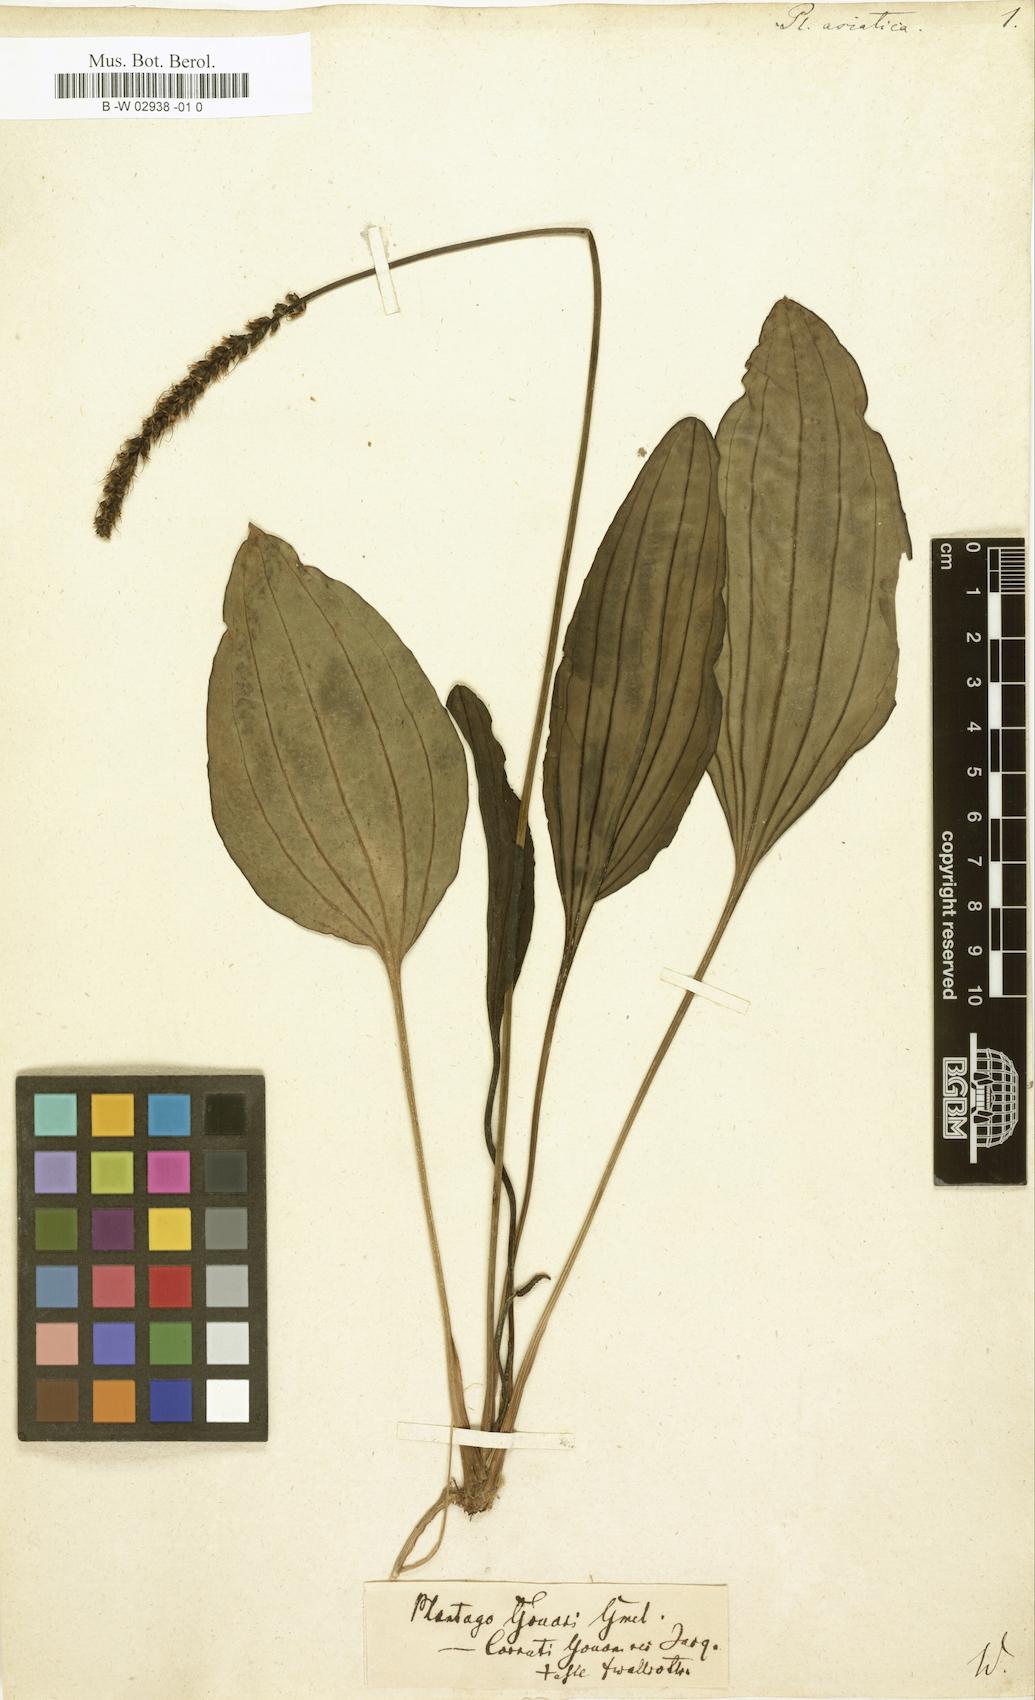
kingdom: Plantae
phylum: Tracheophyta
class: Magnoliopsida
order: Lamiales
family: Plantaginaceae
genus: Plantago
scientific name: Plantago asiatica
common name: Psyllium
